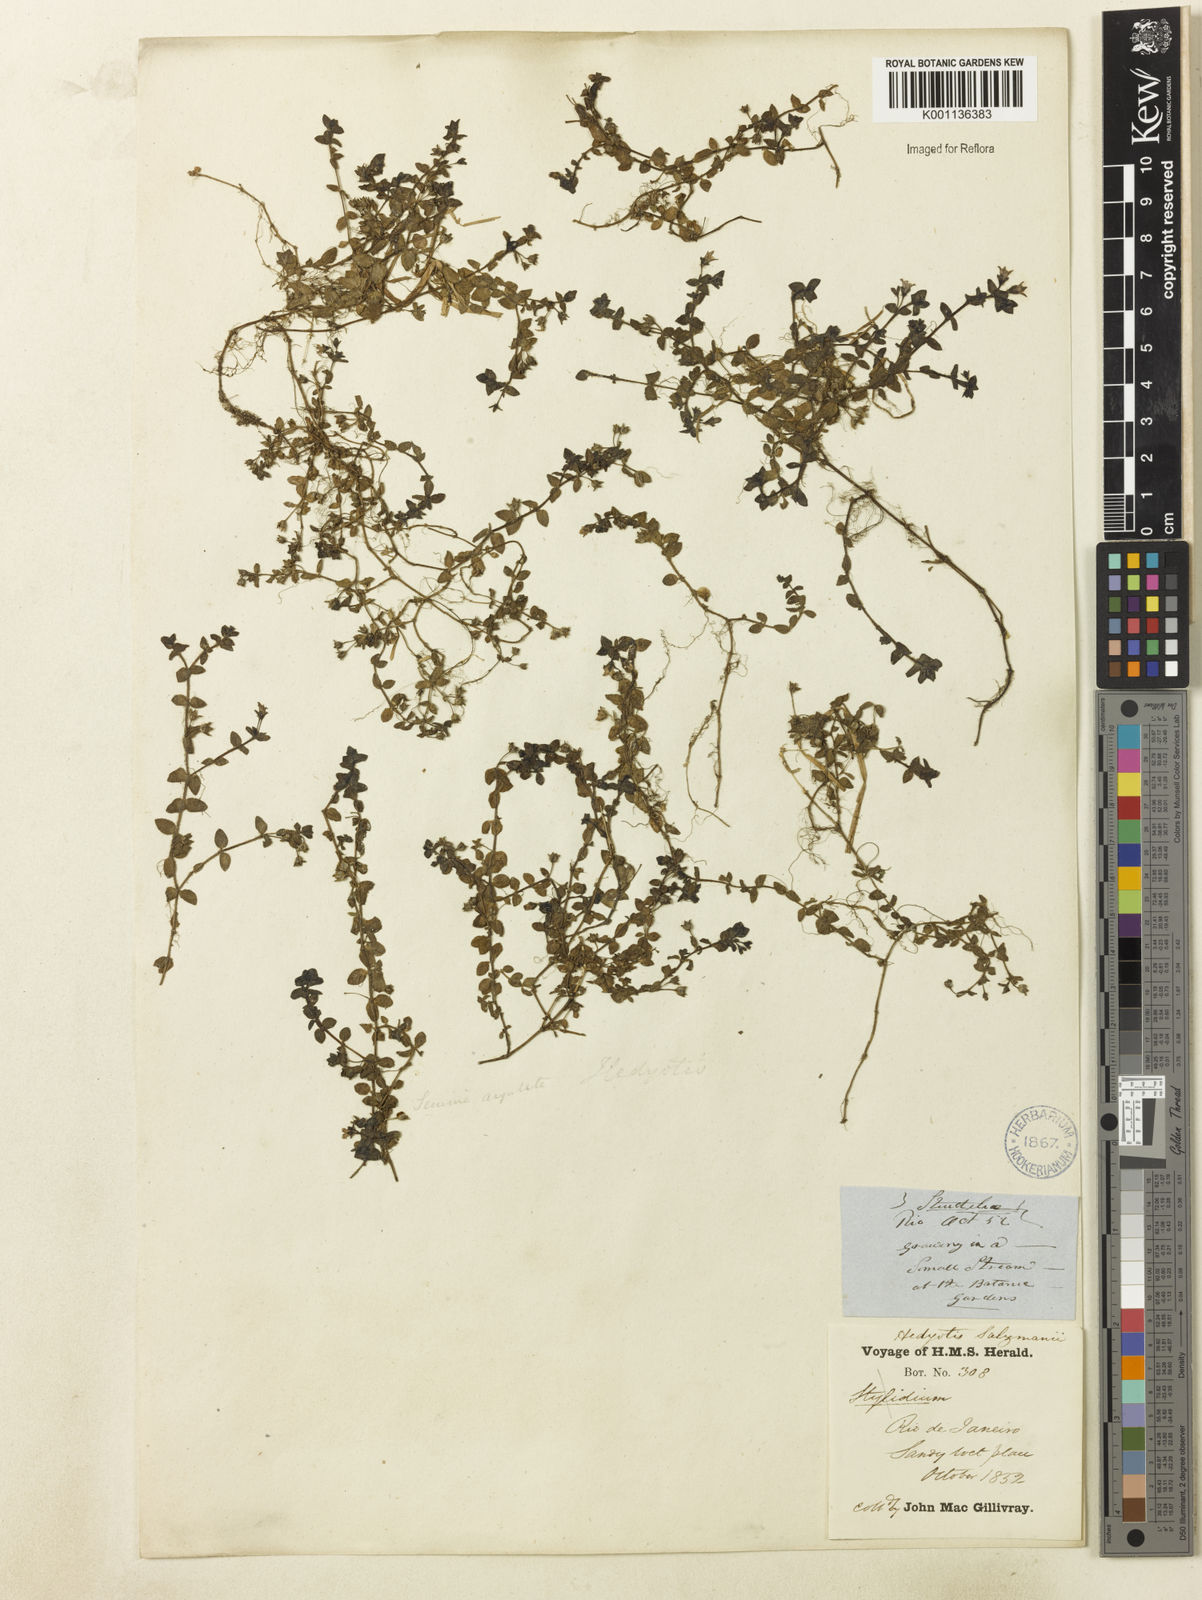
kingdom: Plantae
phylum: Tracheophyta
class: Magnoliopsida
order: Gentianales
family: Rubiaceae
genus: Oldenlandia
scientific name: Oldenlandia salzmannii
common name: Salzmann's mille graines
